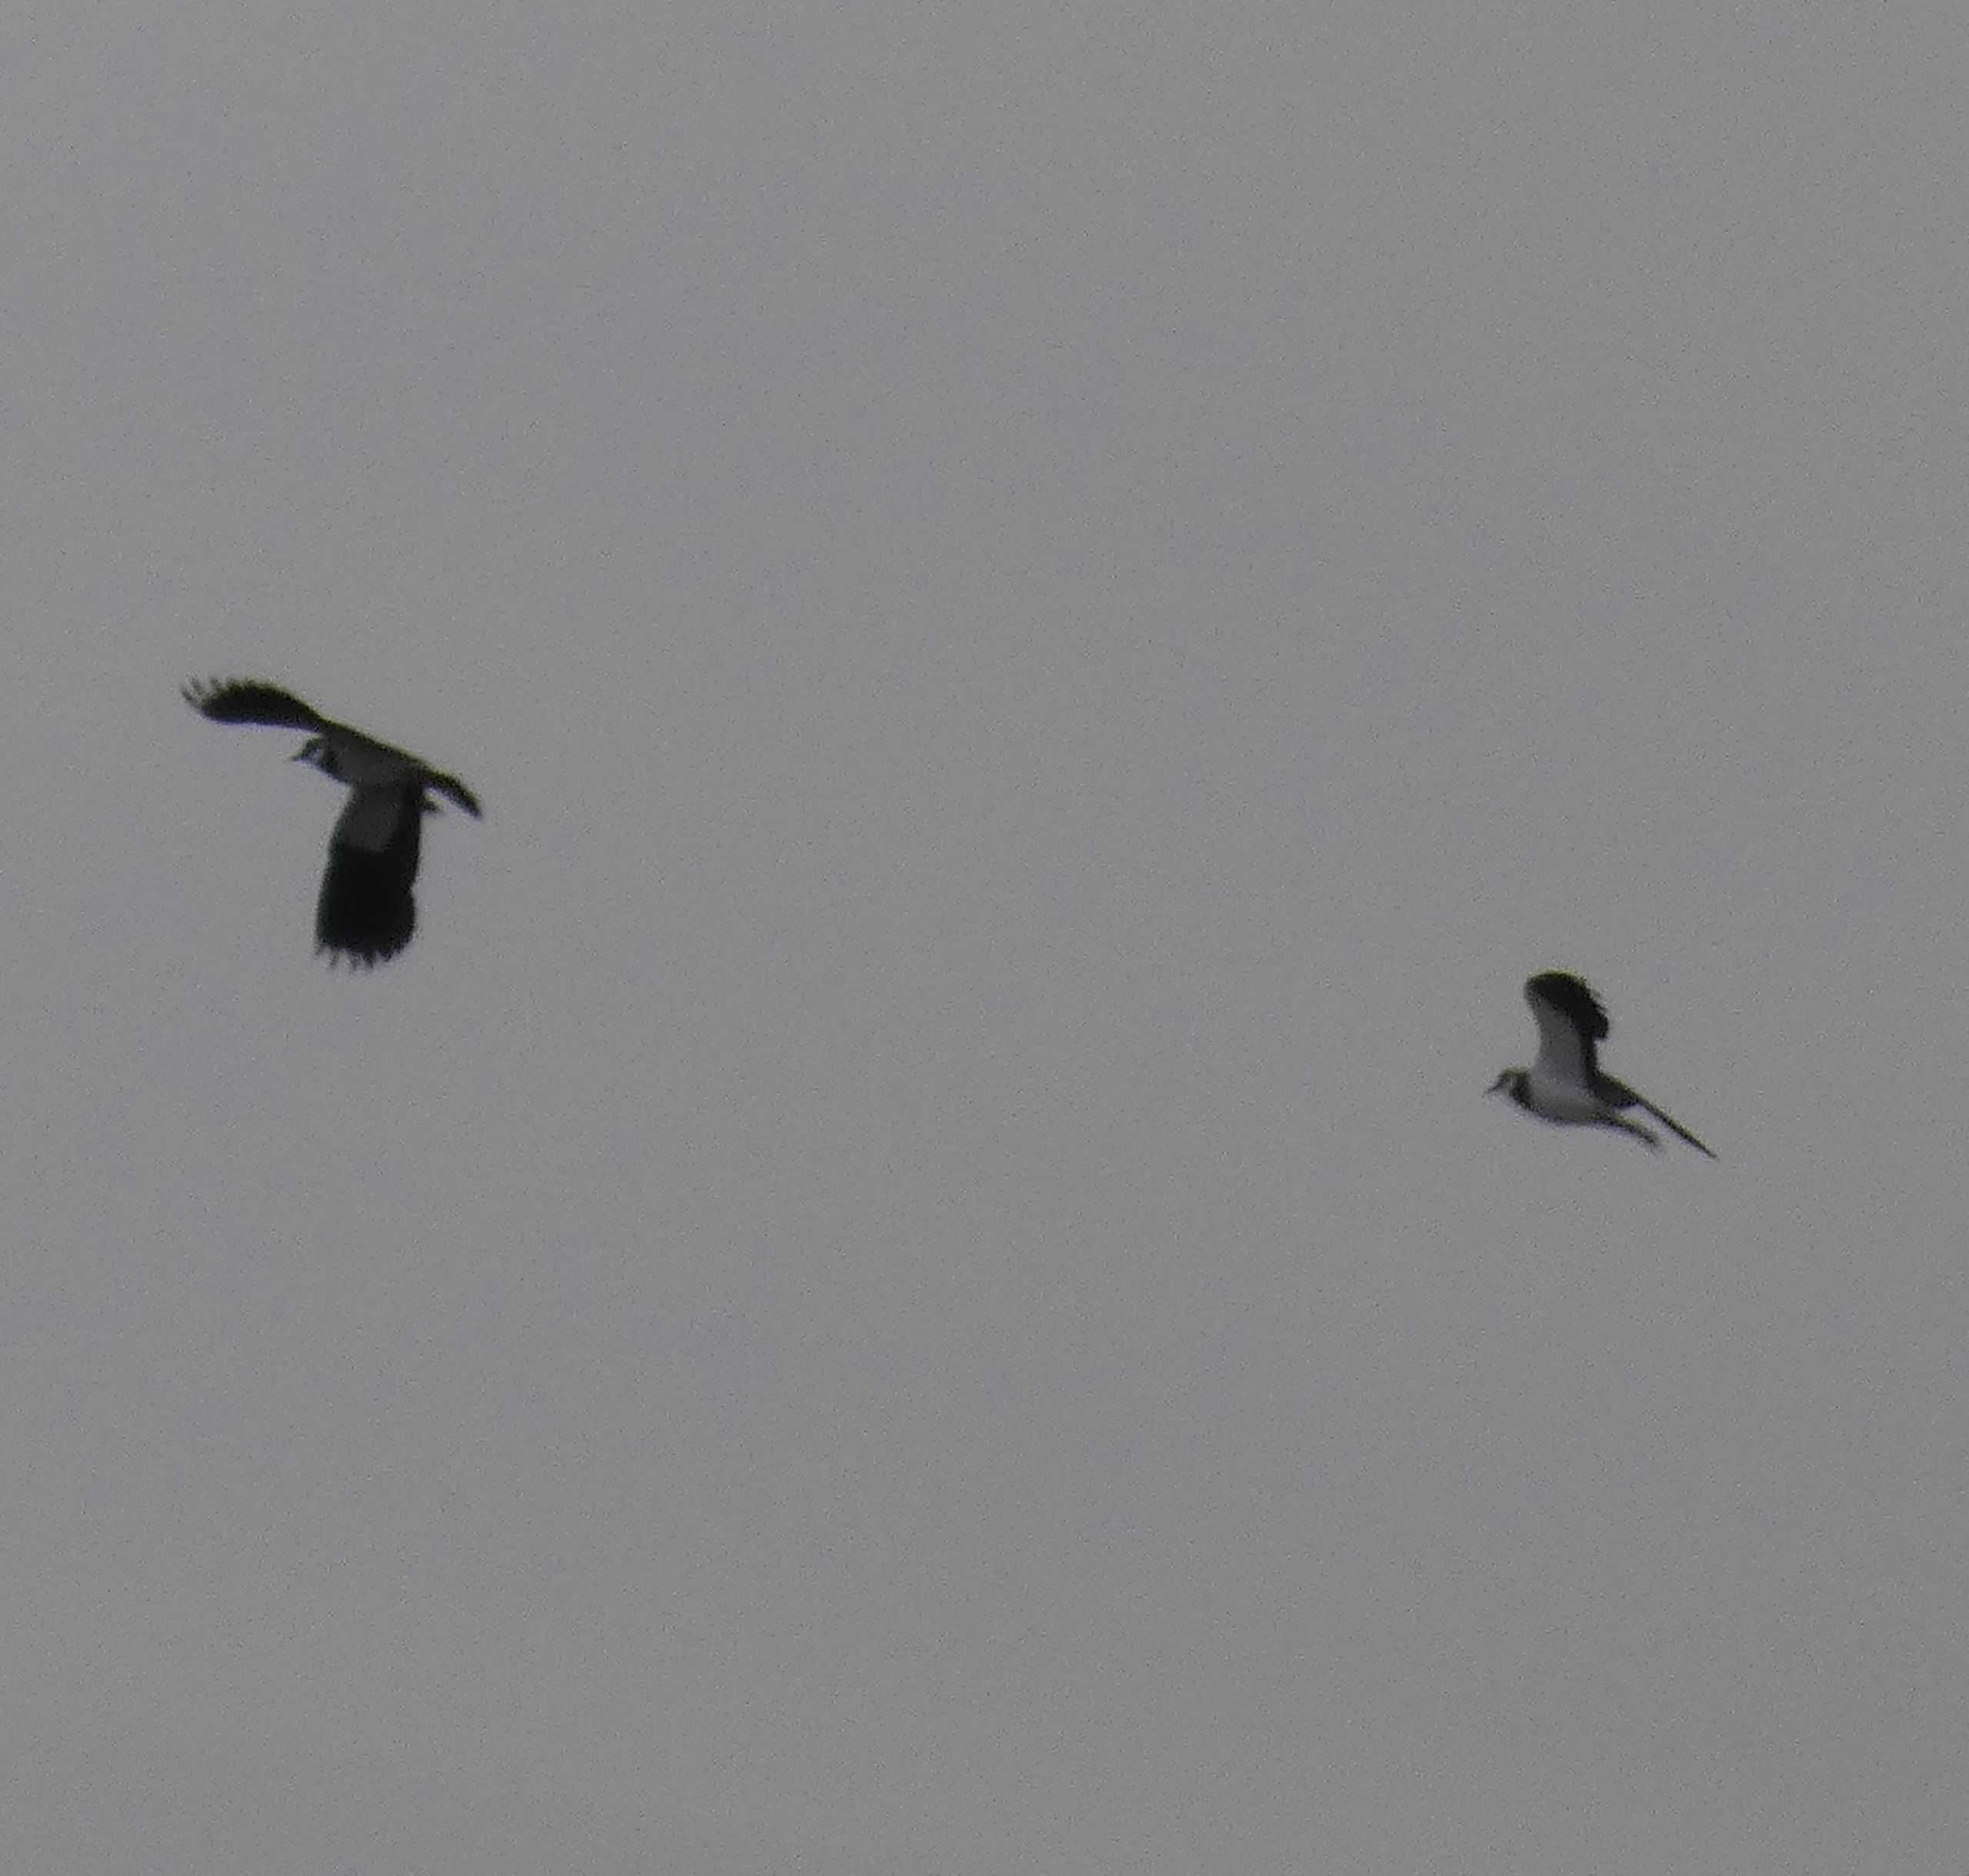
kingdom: Animalia
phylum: Chordata
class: Aves
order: Charadriiformes
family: Charadriidae
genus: Vanellus
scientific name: Vanellus vanellus
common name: Vibe
